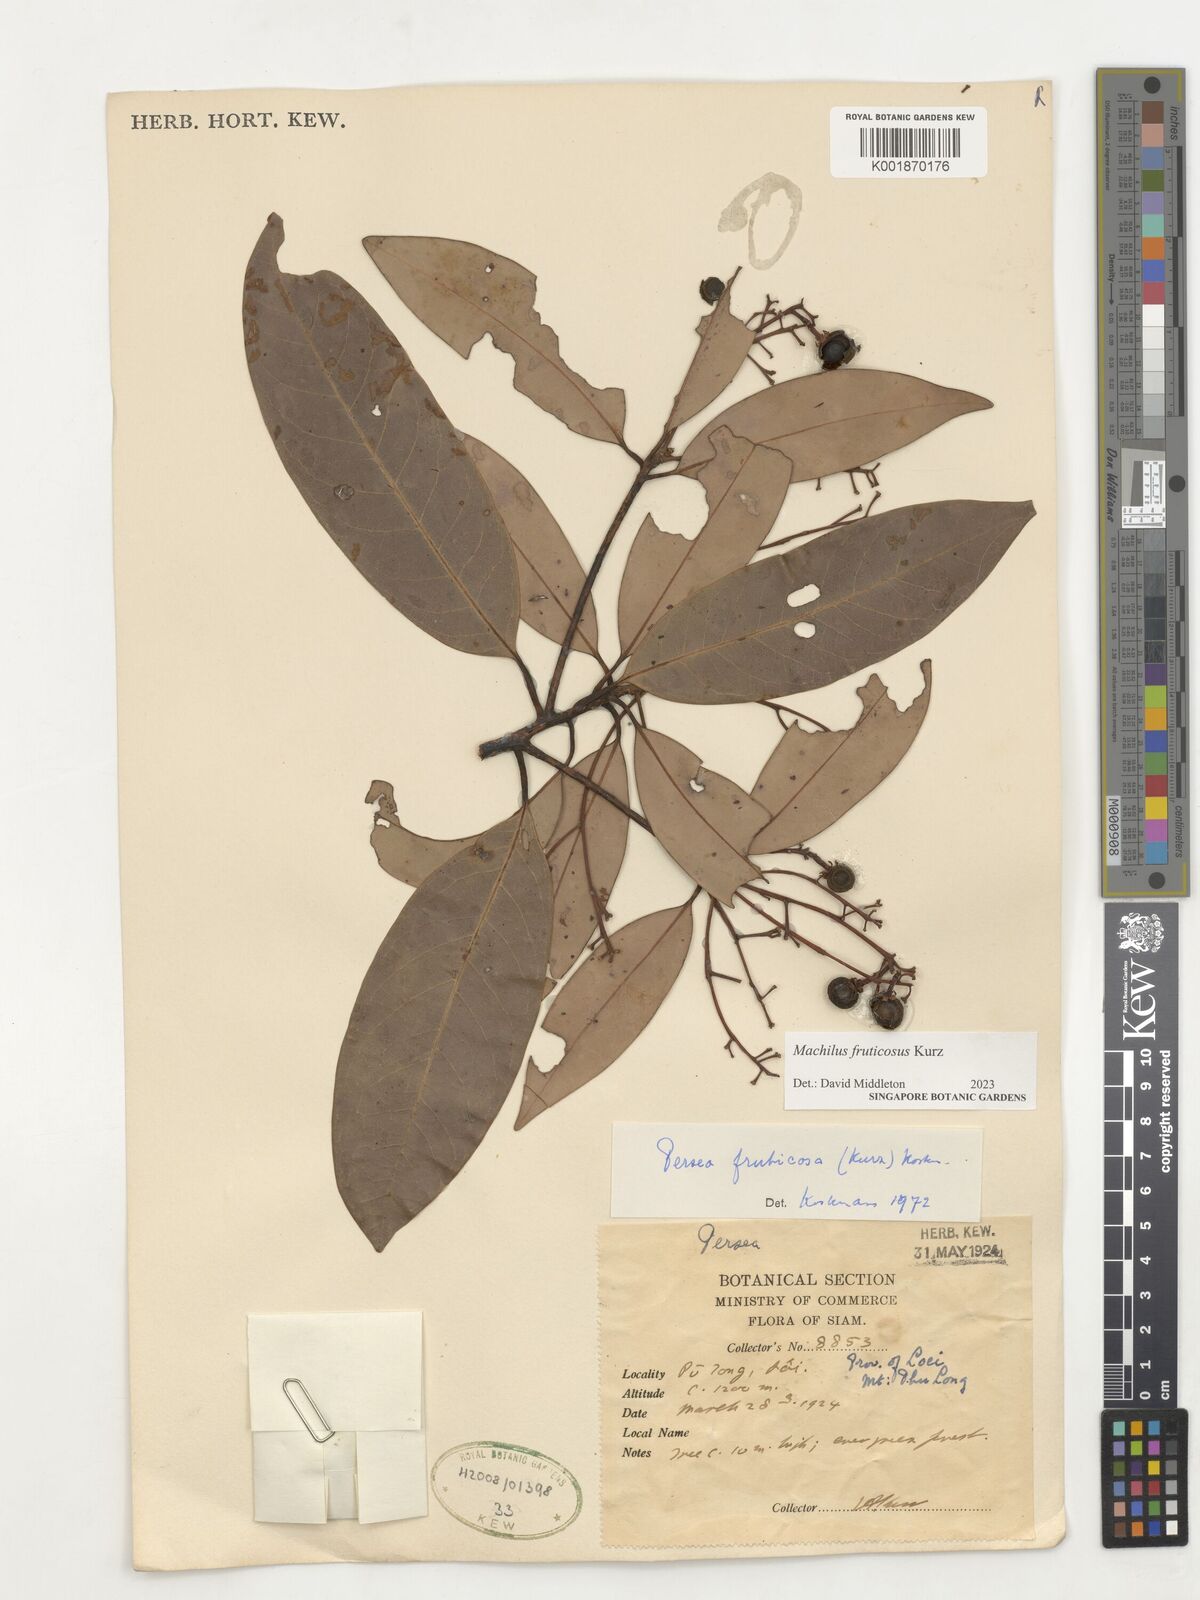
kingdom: Plantae
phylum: Tracheophyta
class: Magnoliopsida
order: Laurales
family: Lauraceae
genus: Machilus
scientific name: Machilus
